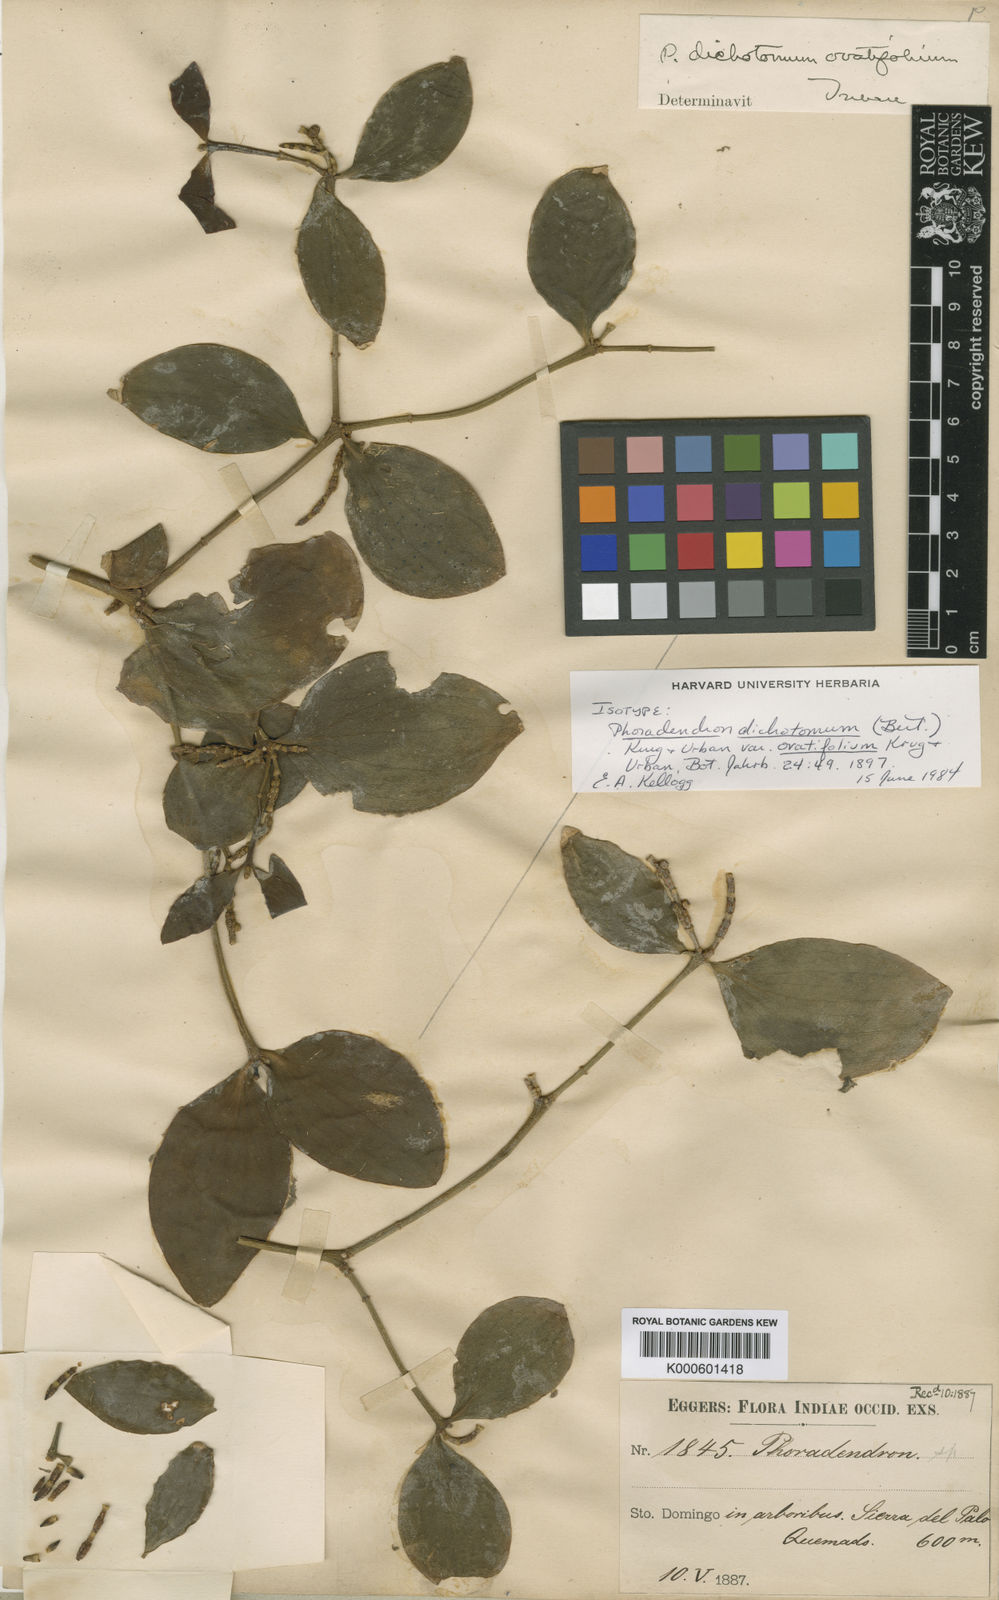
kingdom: Plantae
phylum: Tracheophyta
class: Magnoliopsida
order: Santalales
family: Viscaceae
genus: Phoradendron
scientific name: Phoradendron
